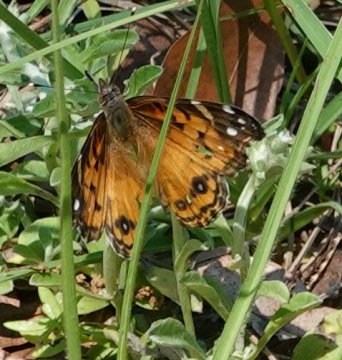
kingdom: Animalia
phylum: Arthropoda
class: Insecta
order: Lepidoptera
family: Nymphalidae
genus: Vanessa
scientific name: Vanessa virginiensis
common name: American Lady
